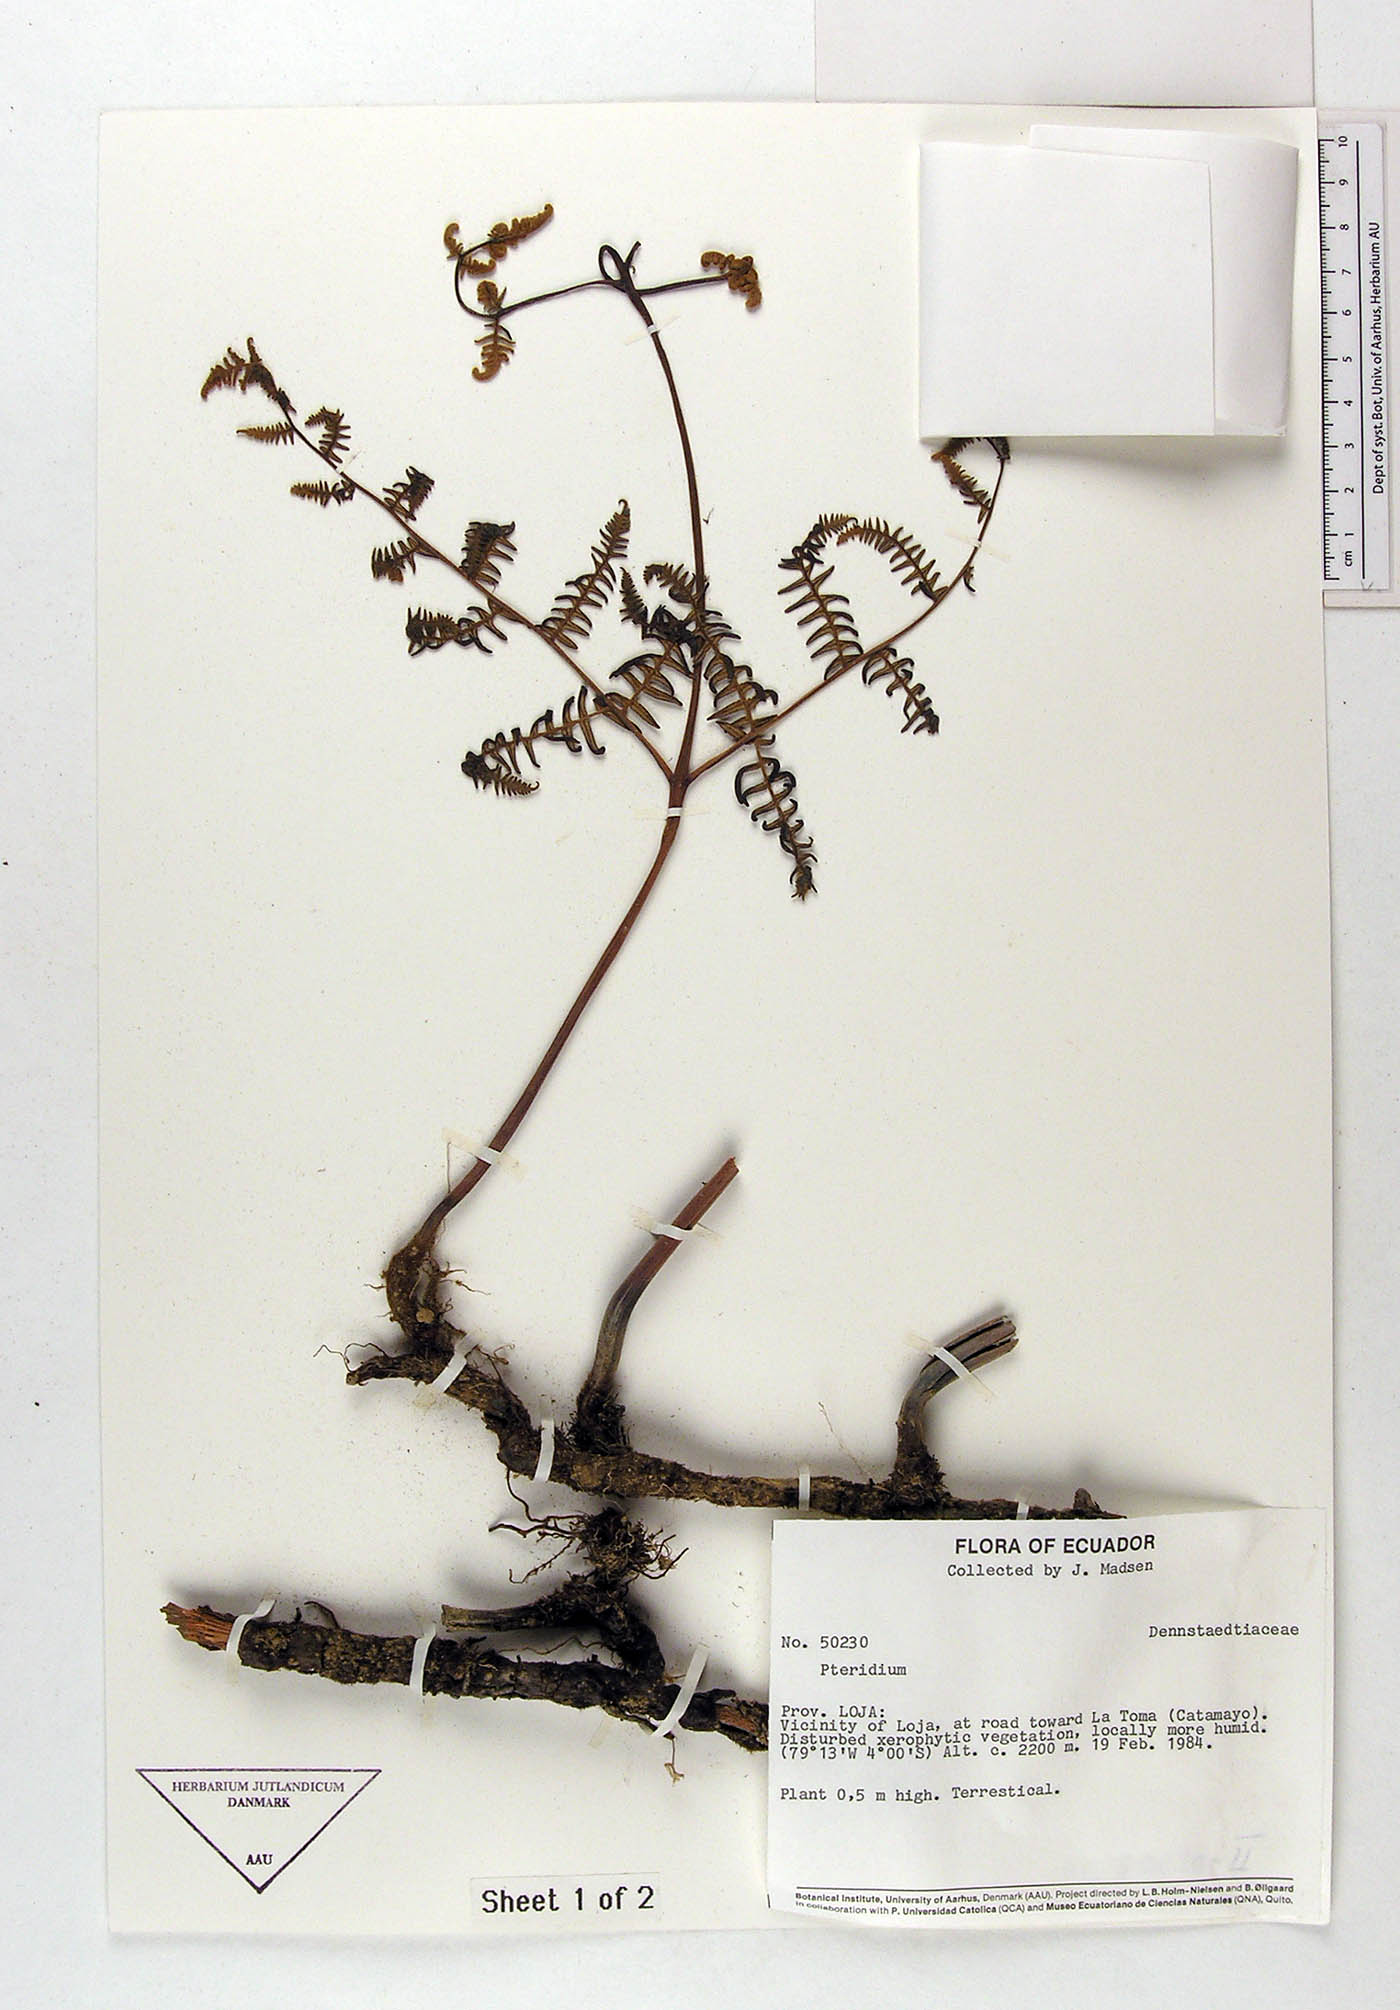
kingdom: Plantae
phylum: Tracheophyta
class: Polypodiopsida
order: Polypodiales
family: Dennstaedtiaceae
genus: Pteridium
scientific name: Pteridium esculentum
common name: Bracken fern
